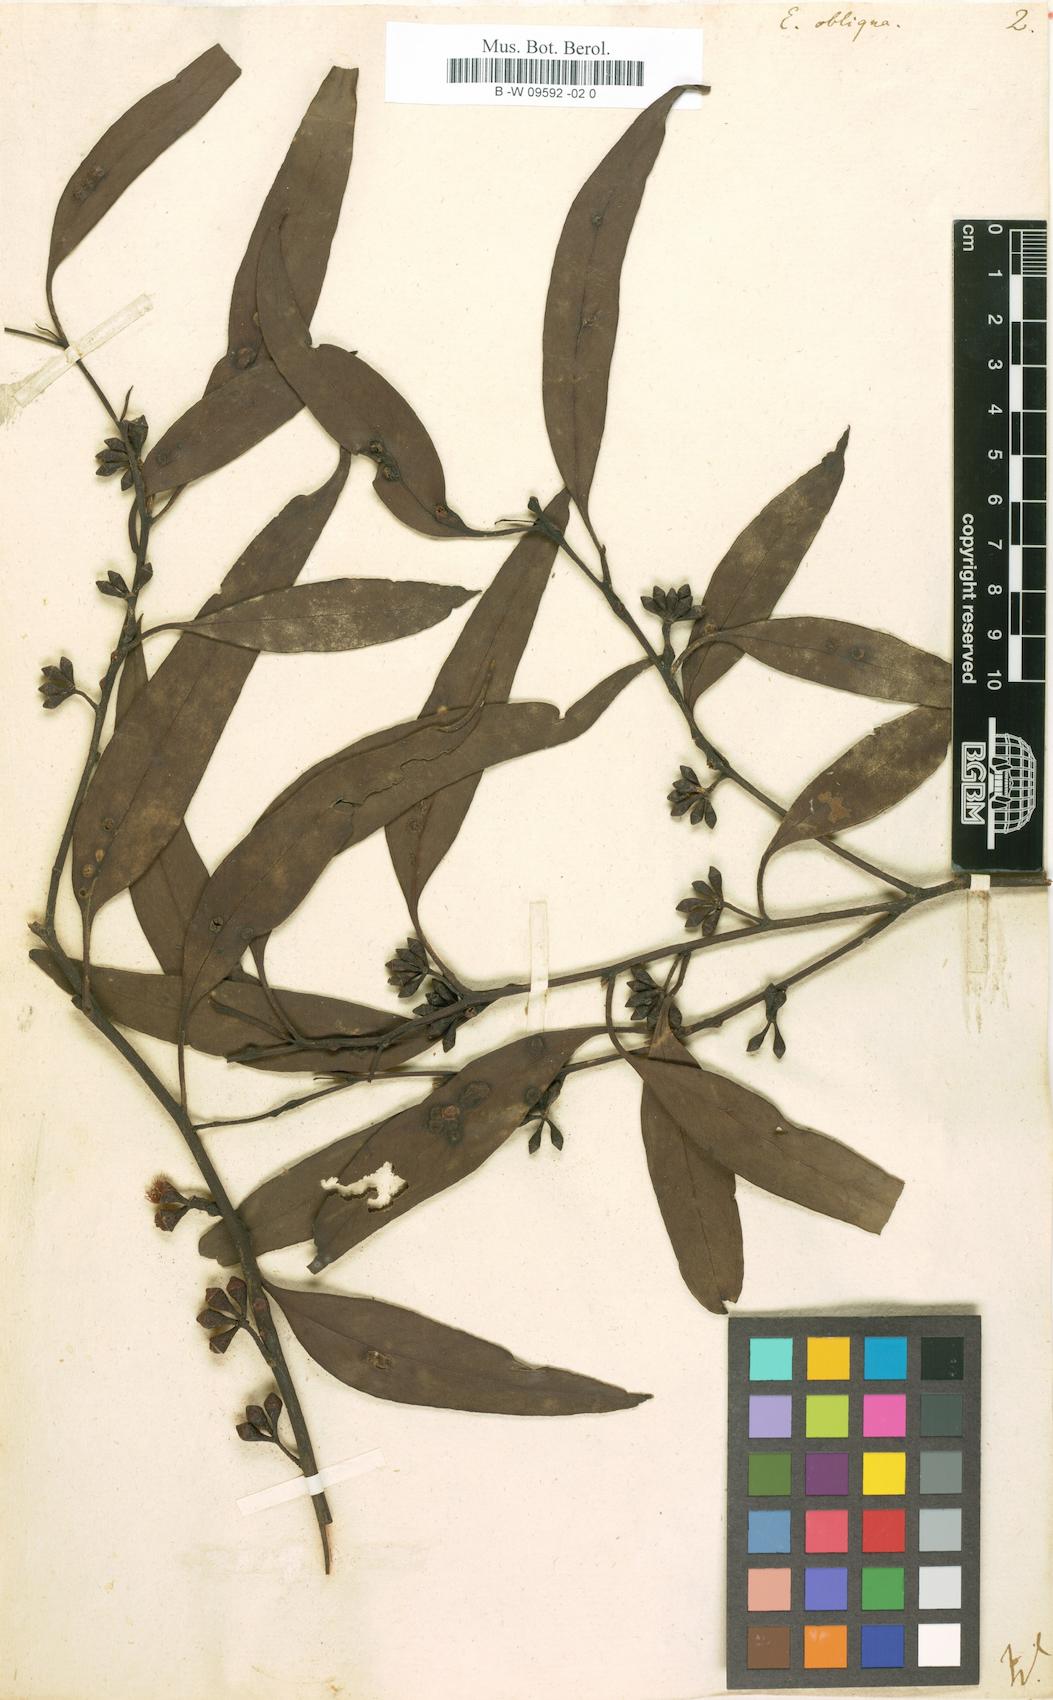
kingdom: Plantae
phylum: Tracheophyta
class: Magnoliopsida
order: Myrtales
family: Myrtaceae
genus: Eucalyptus
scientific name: Eucalyptus obliqua
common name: Messmate stringybark
